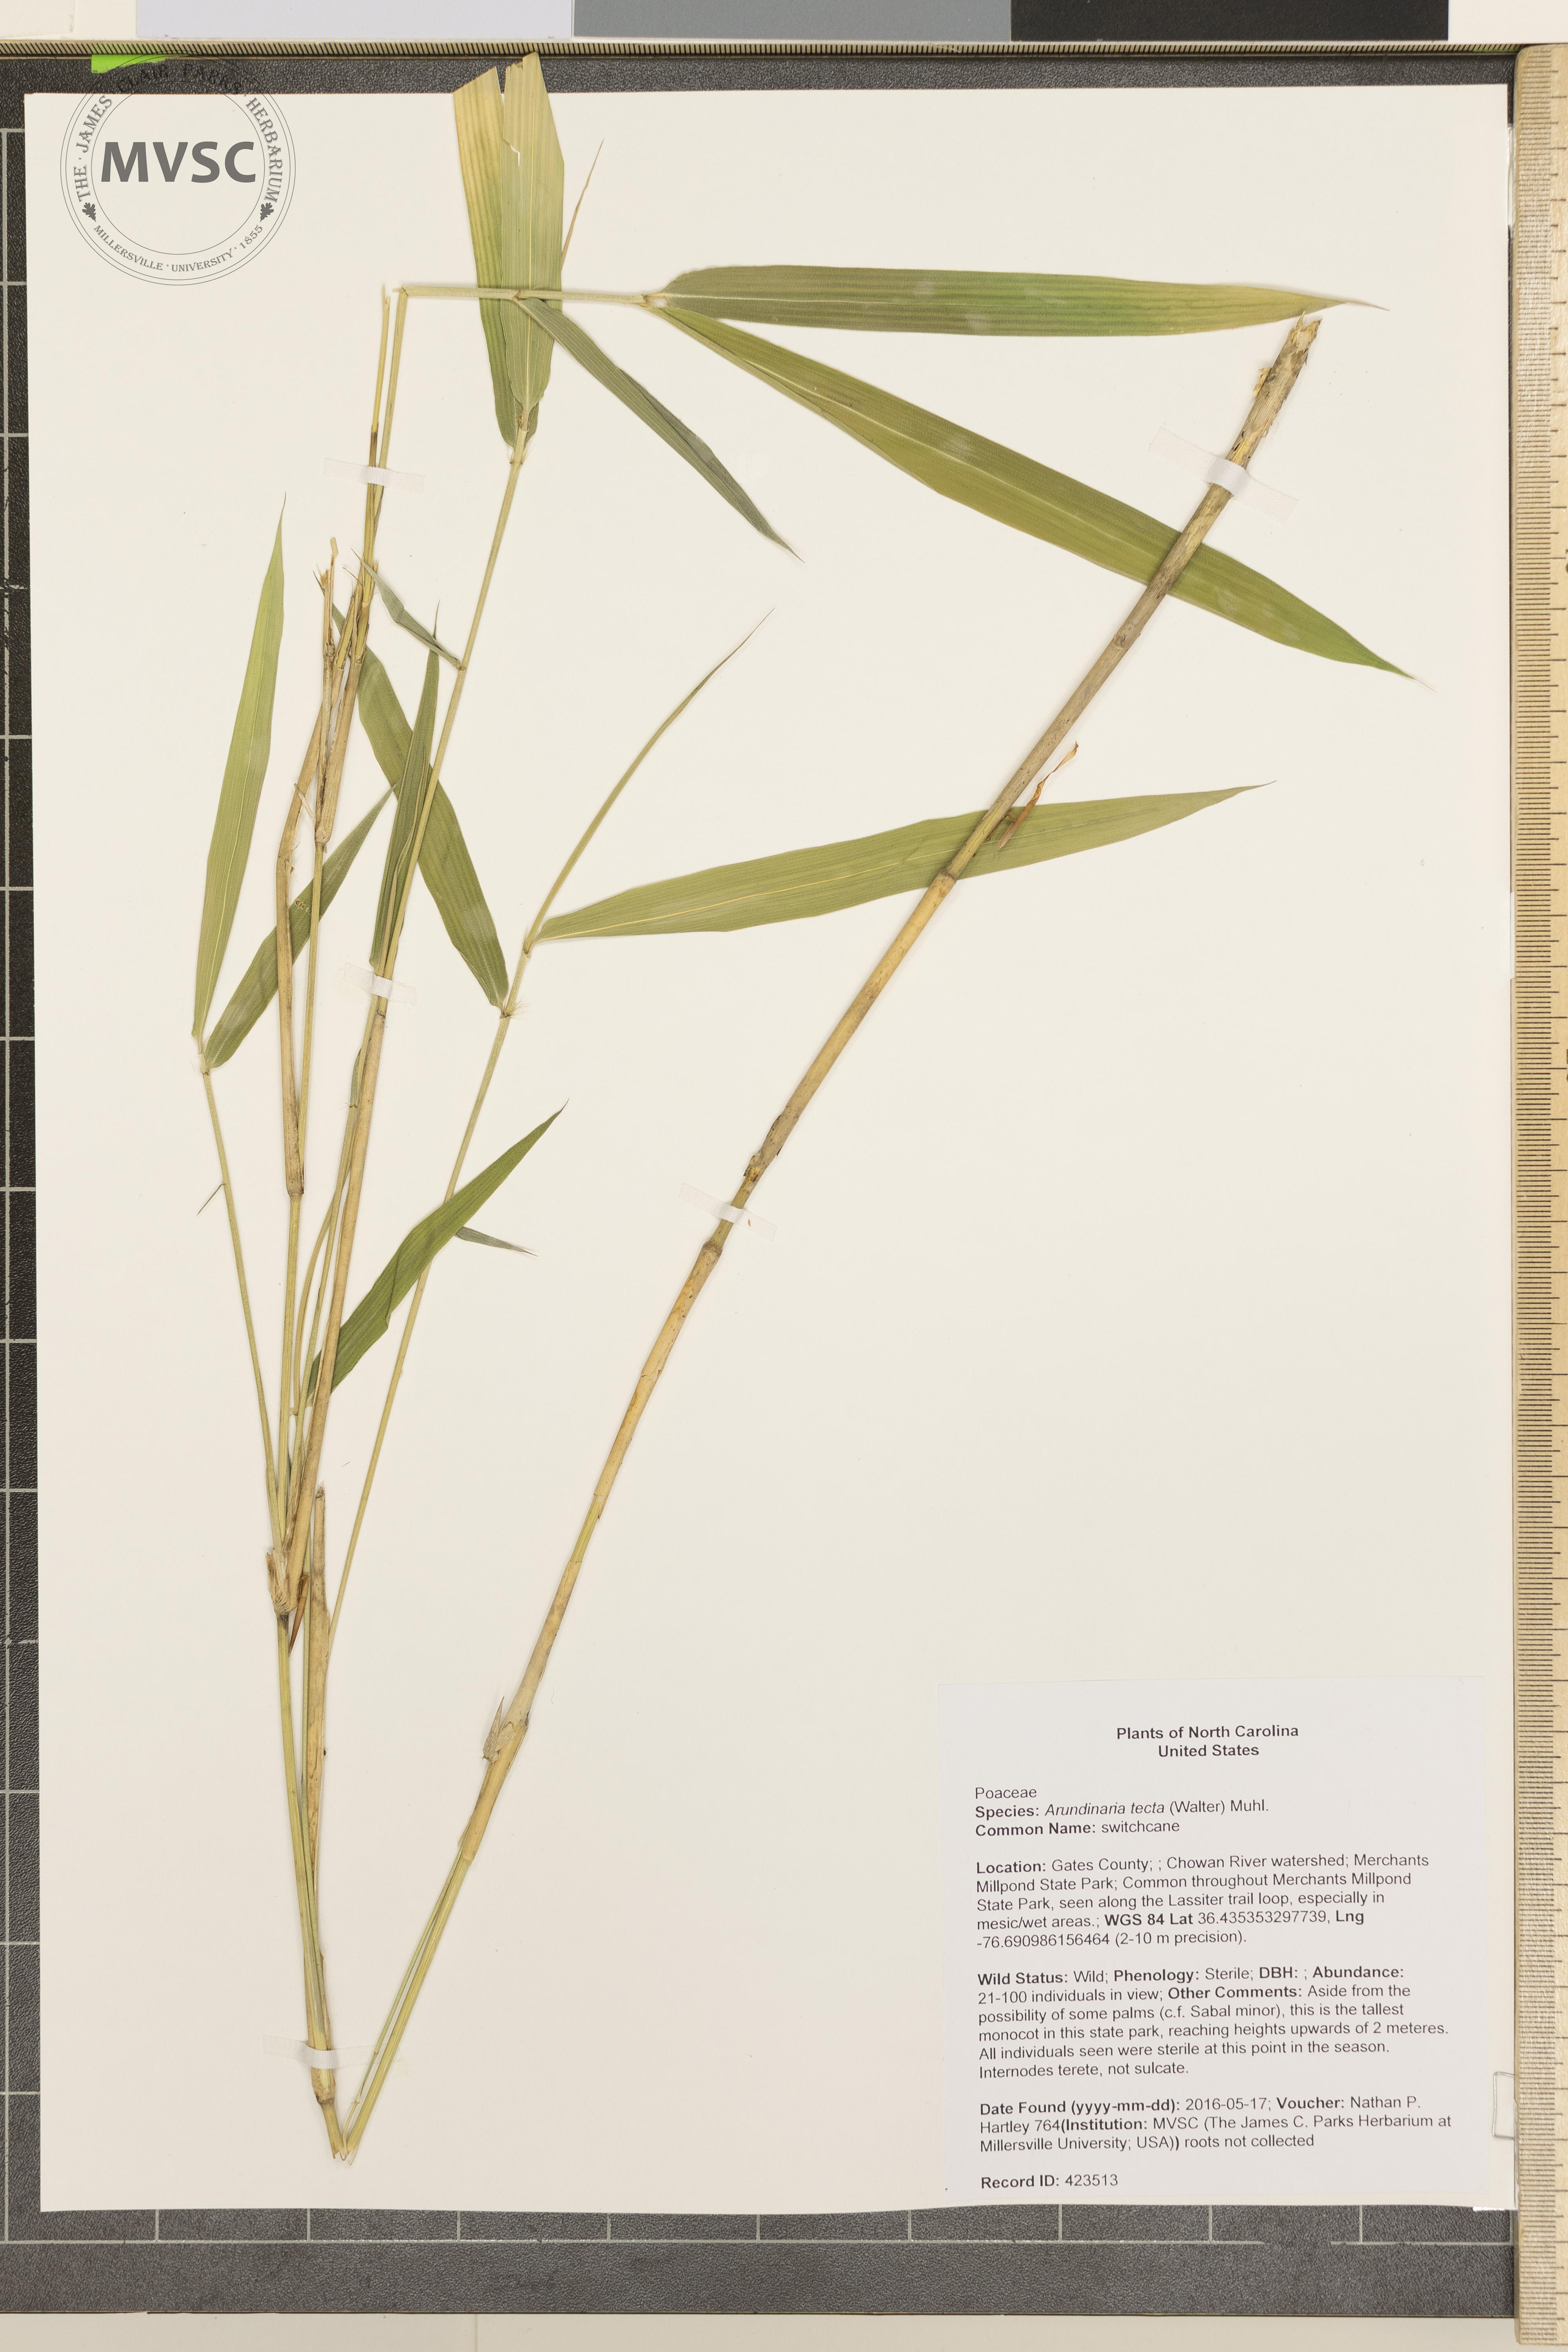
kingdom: Plantae
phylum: Tracheophyta
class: Liliopsida
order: Poales
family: Poaceae
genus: Arundinaria
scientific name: Arundinaria tecta
